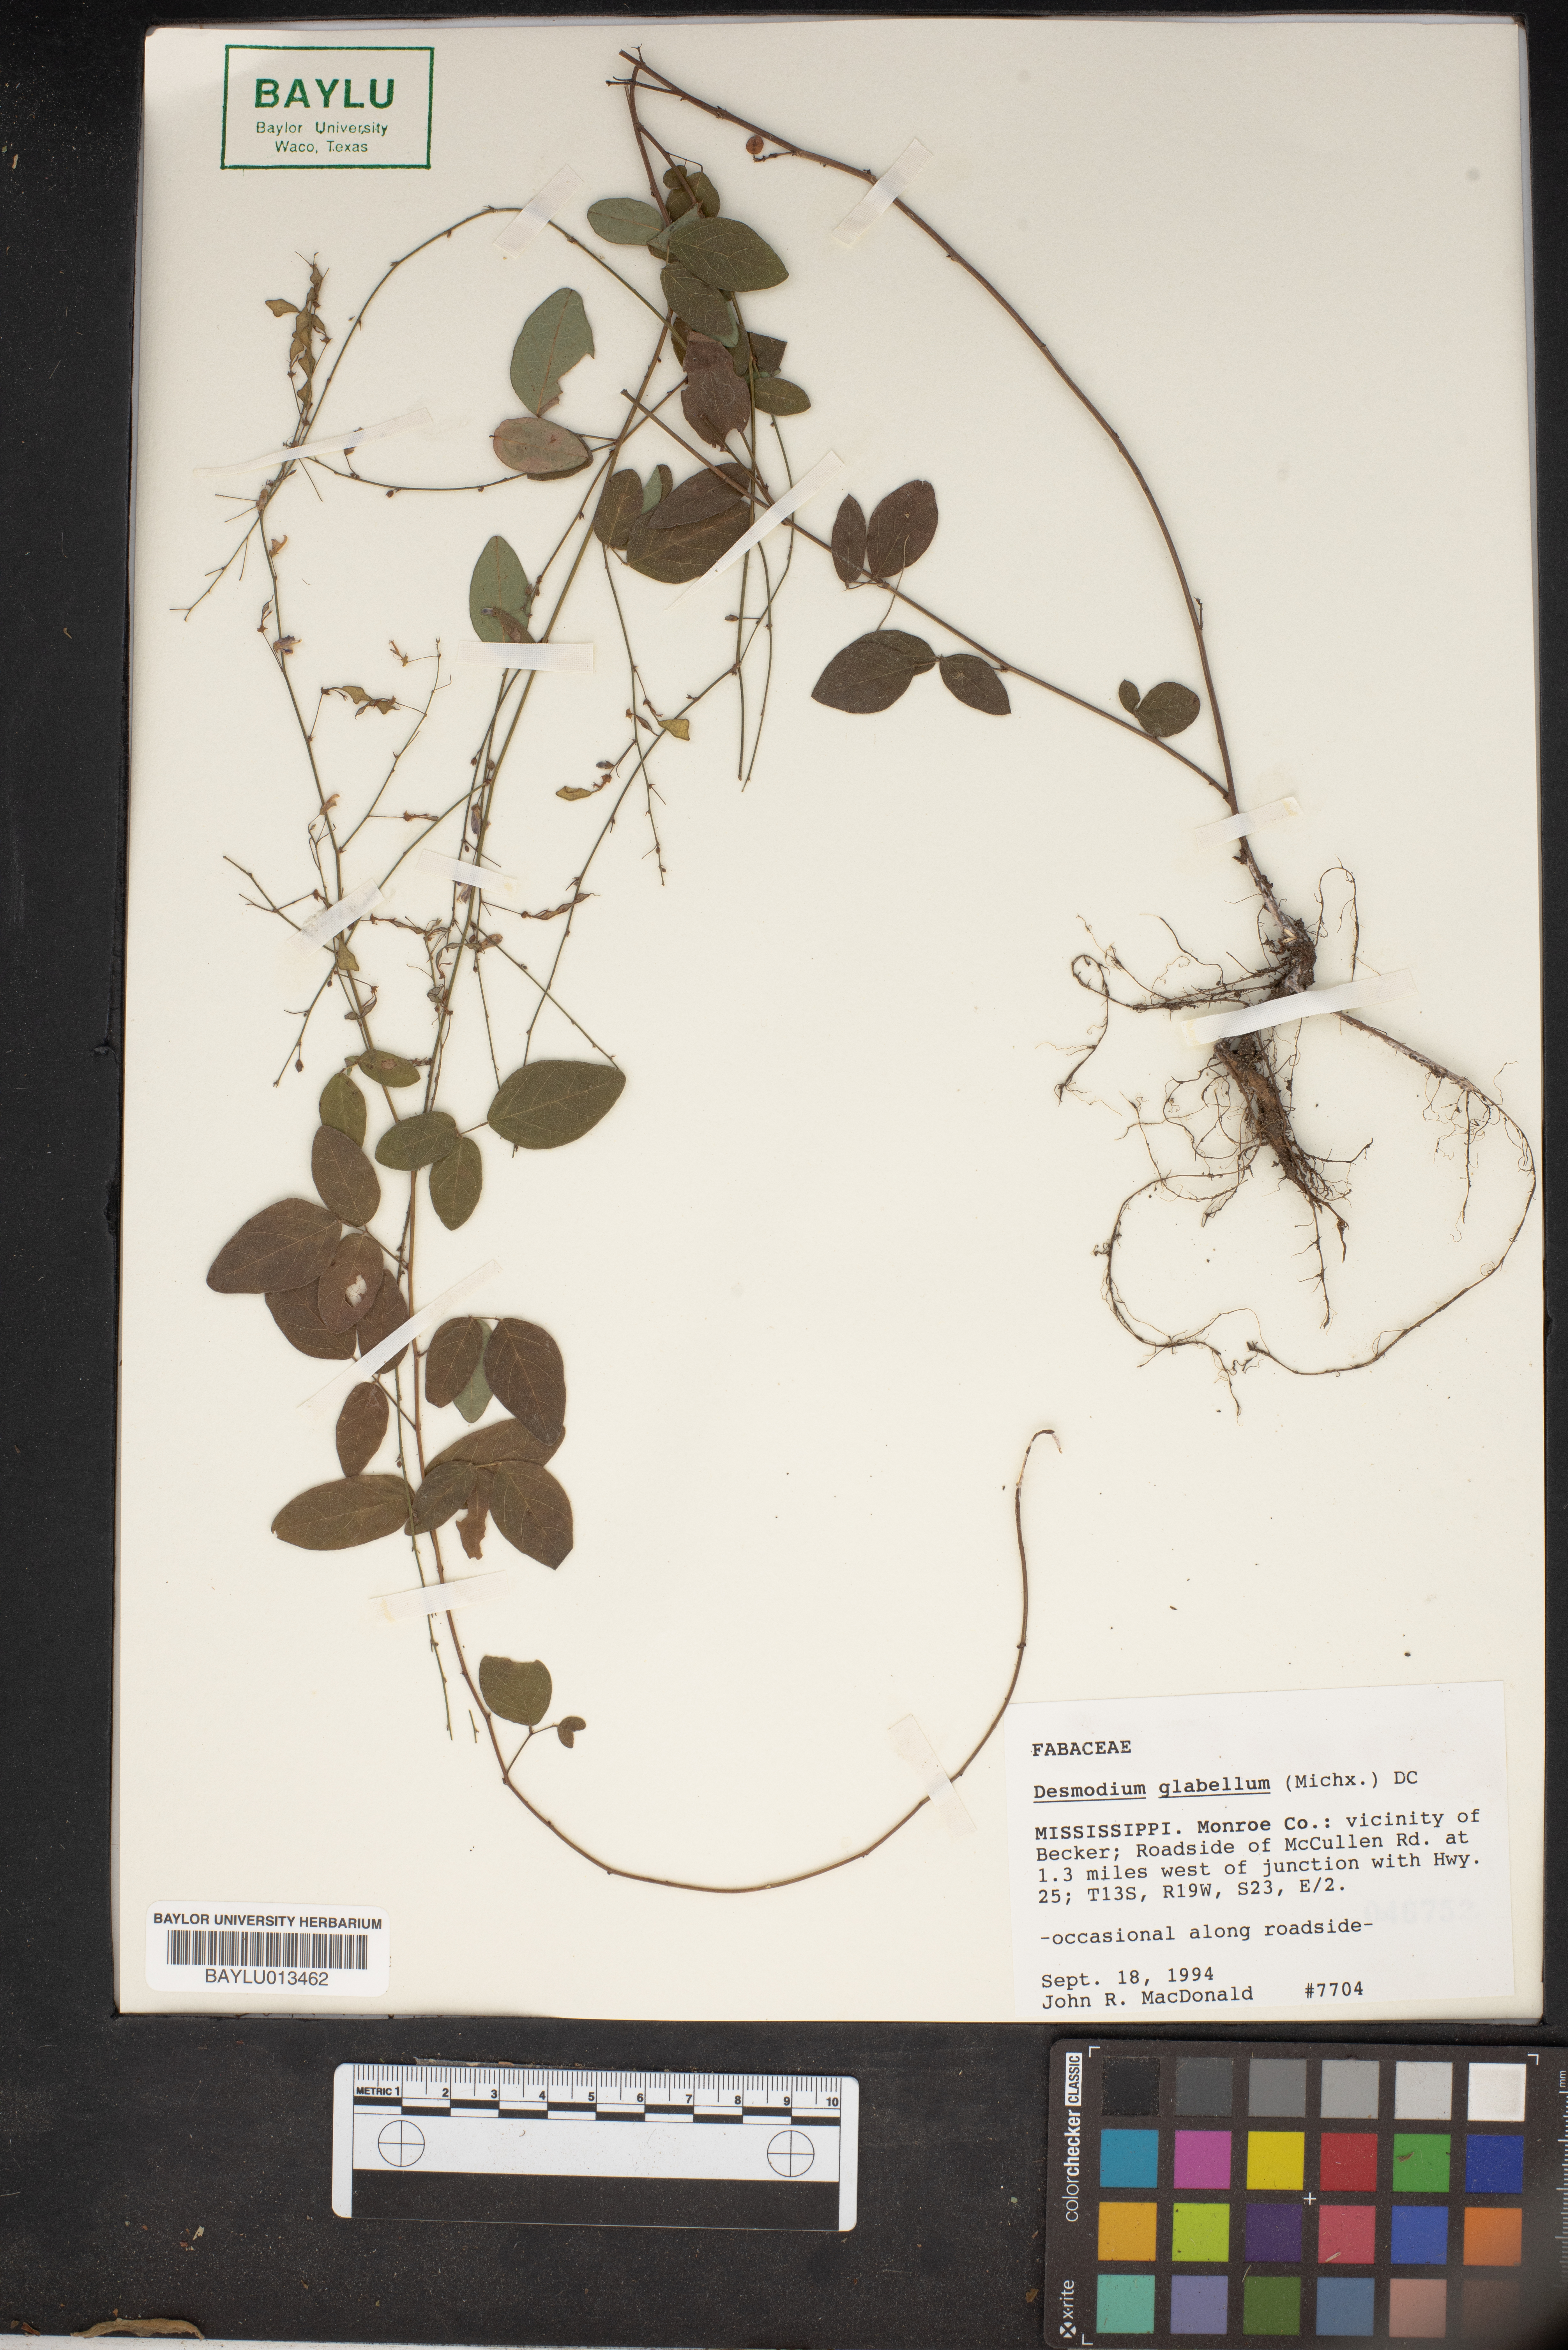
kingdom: Plantae
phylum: Tracheophyta
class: Magnoliopsida
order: Fabales
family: Fabaceae
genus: Desmodium
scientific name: Desmodium glabellum
